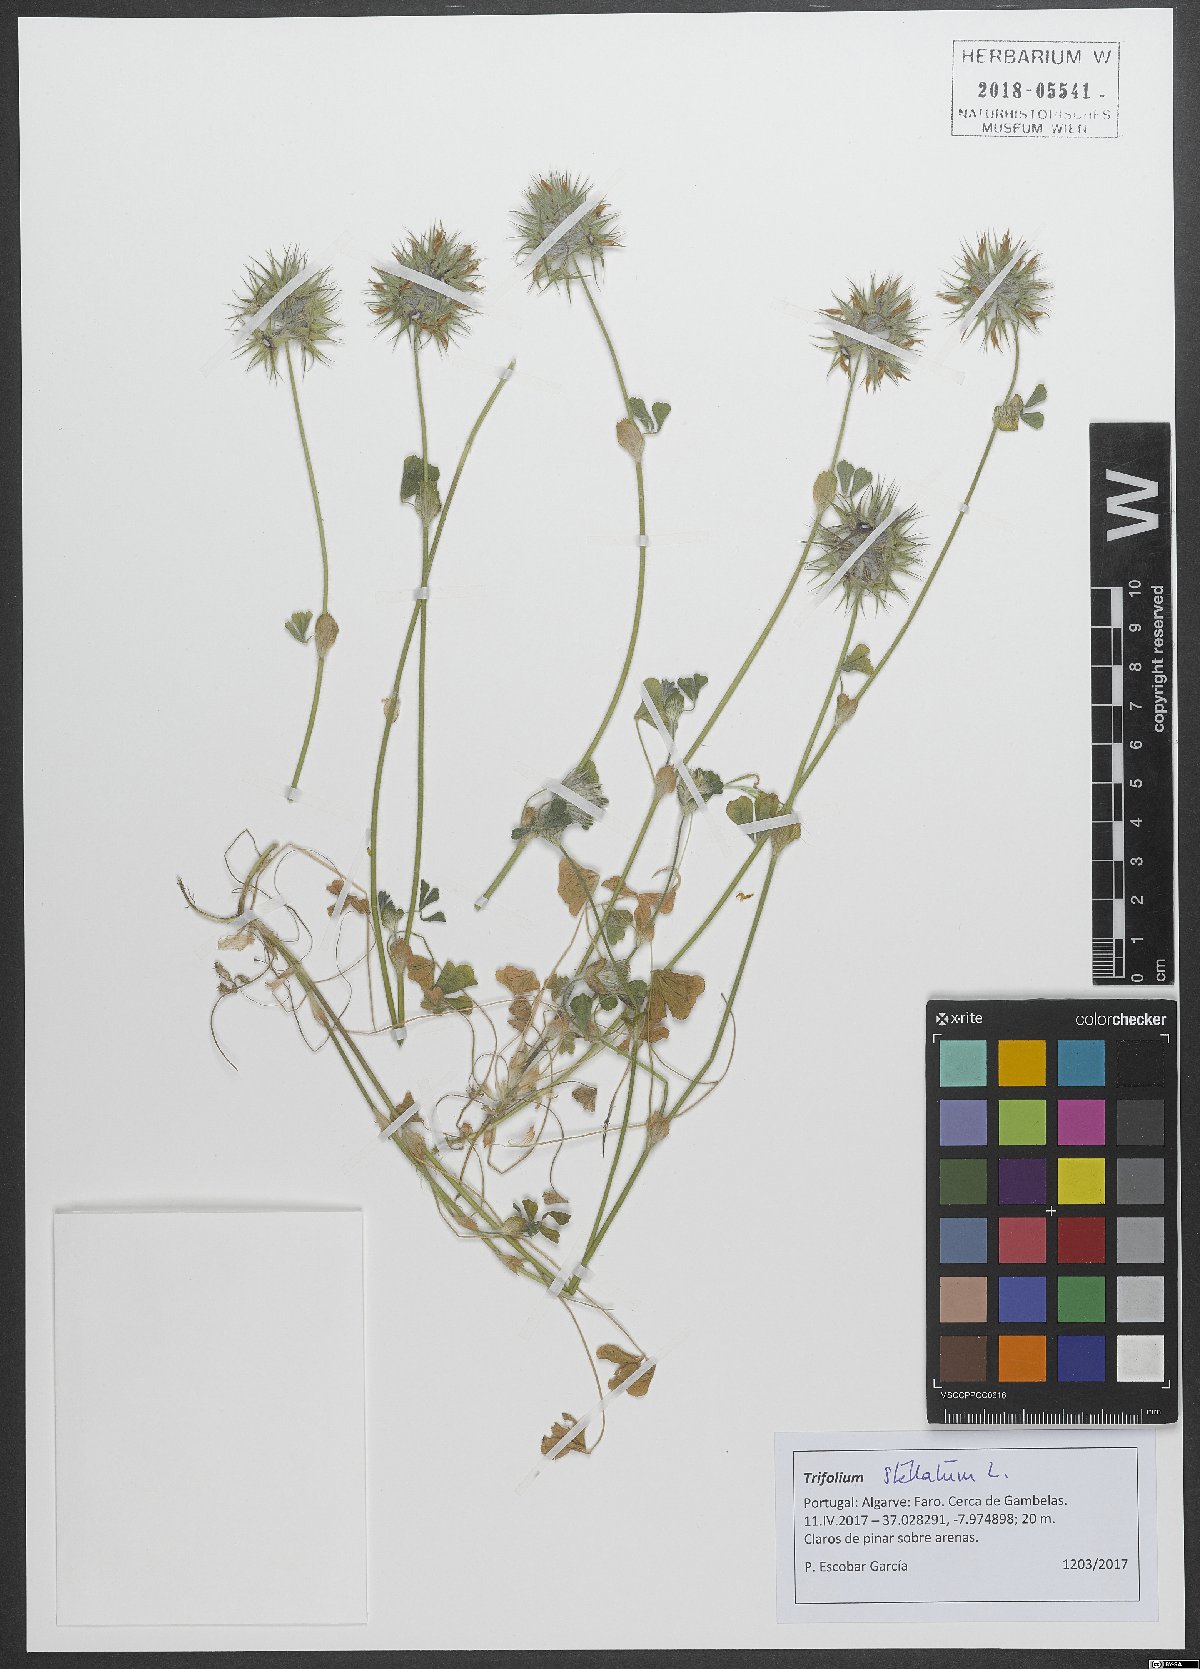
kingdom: Plantae
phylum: Tracheophyta
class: Magnoliopsida
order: Fabales
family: Fabaceae
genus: Trifolium
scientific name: Trifolium stellatum
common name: Starry clover
